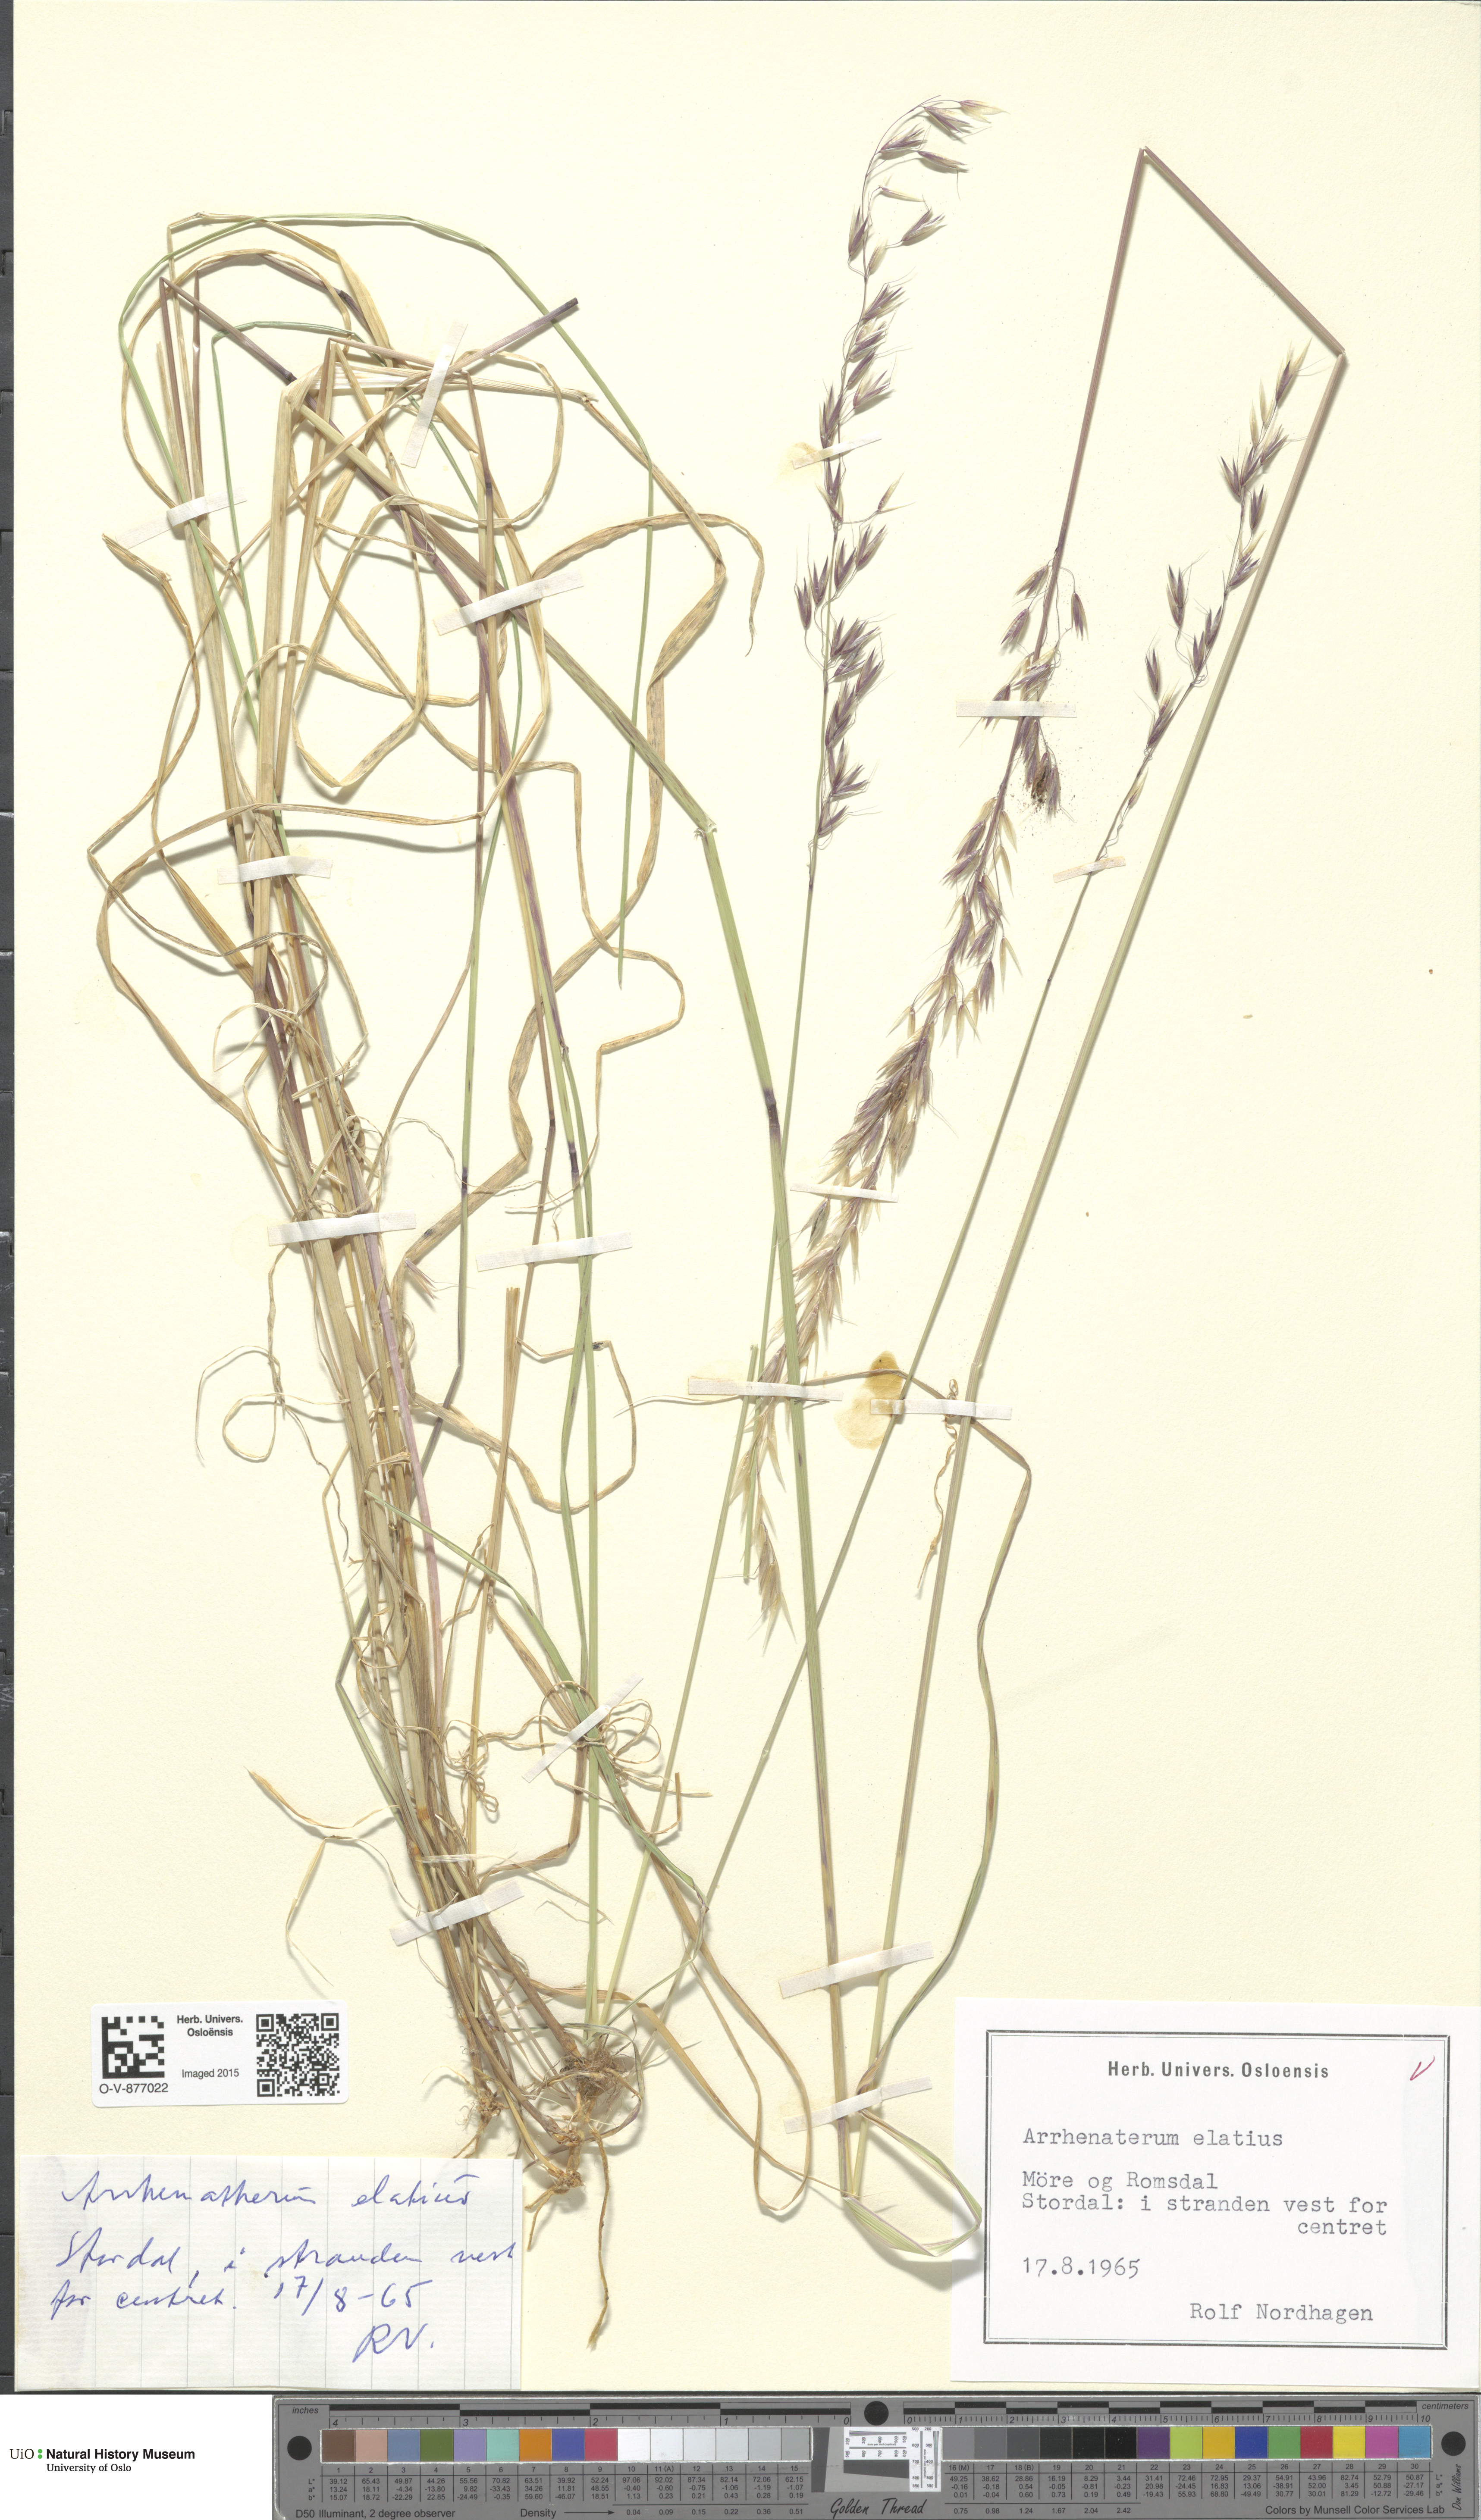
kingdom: Plantae
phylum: Tracheophyta
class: Liliopsida
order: Poales
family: Poaceae
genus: Arrhenatherum
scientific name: Arrhenatherum elatius
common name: Tall oatgrass
